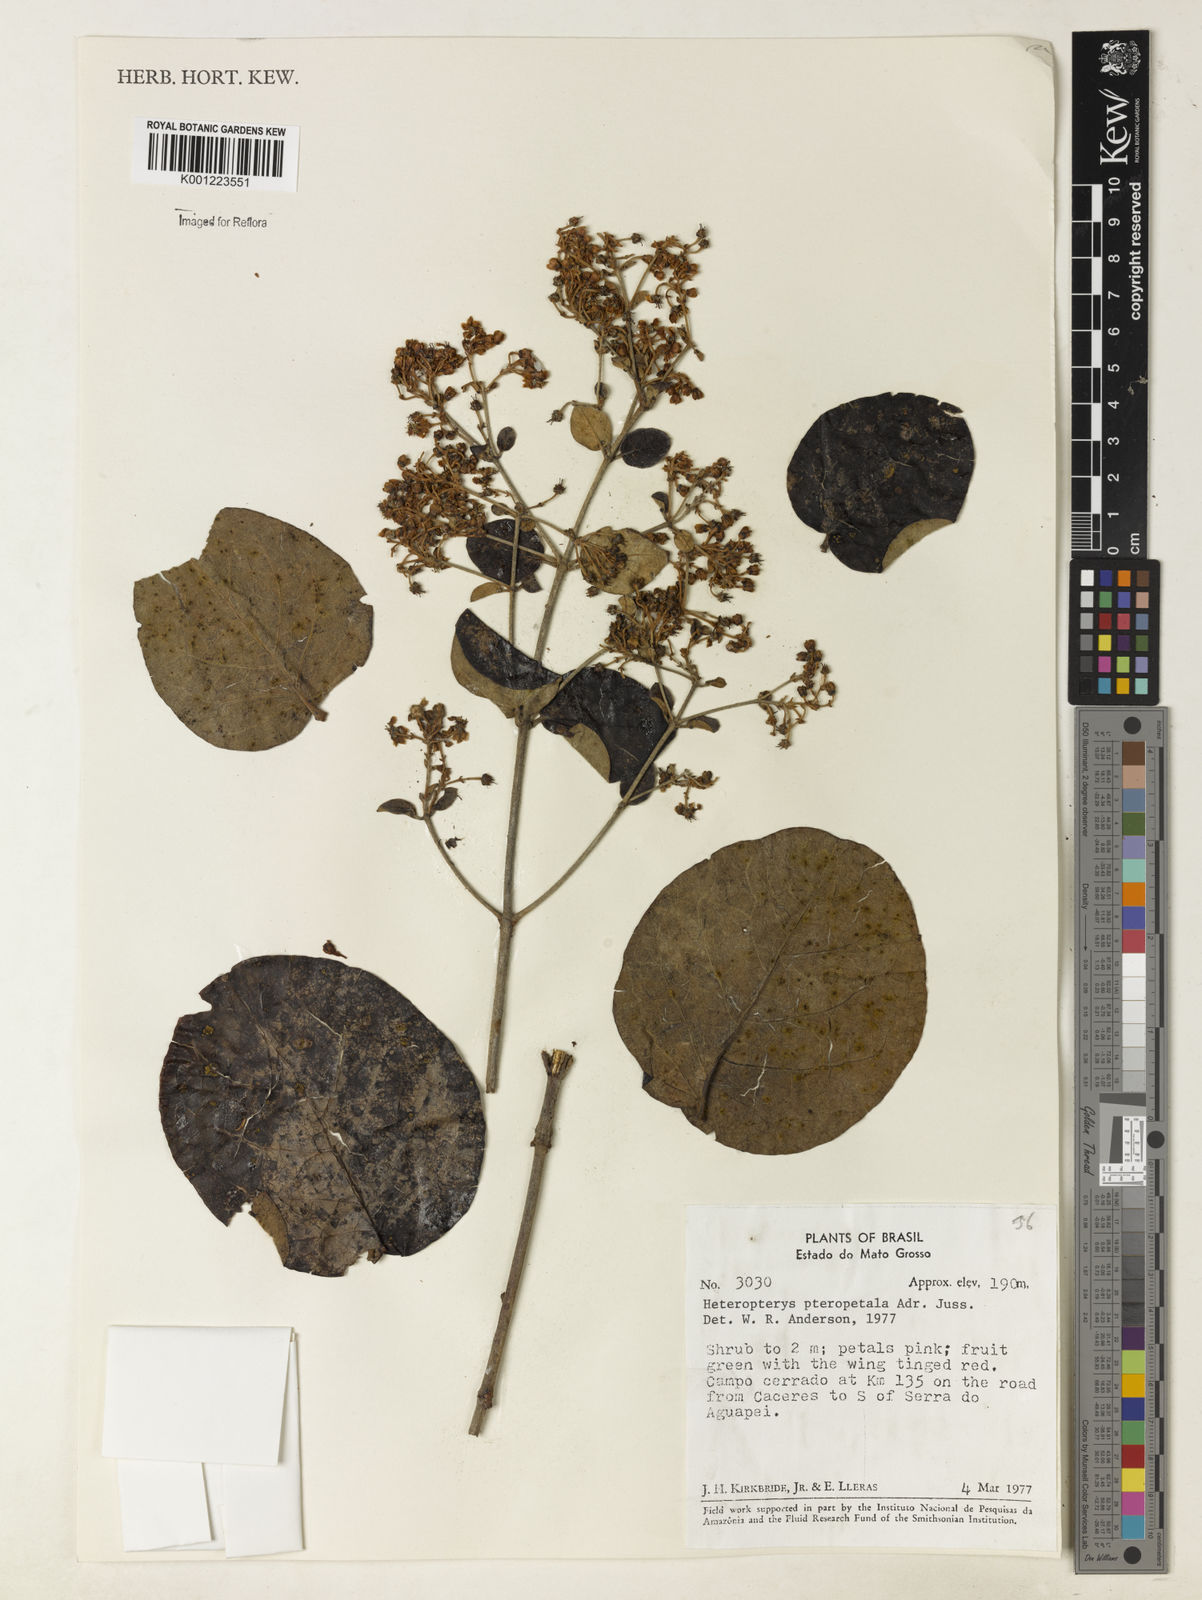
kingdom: Plantae
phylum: Tracheophyta
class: Magnoliopsida
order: Malpighiales
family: Malpighiaceae
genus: Heteropterys
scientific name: Heteropterys pteropetala
